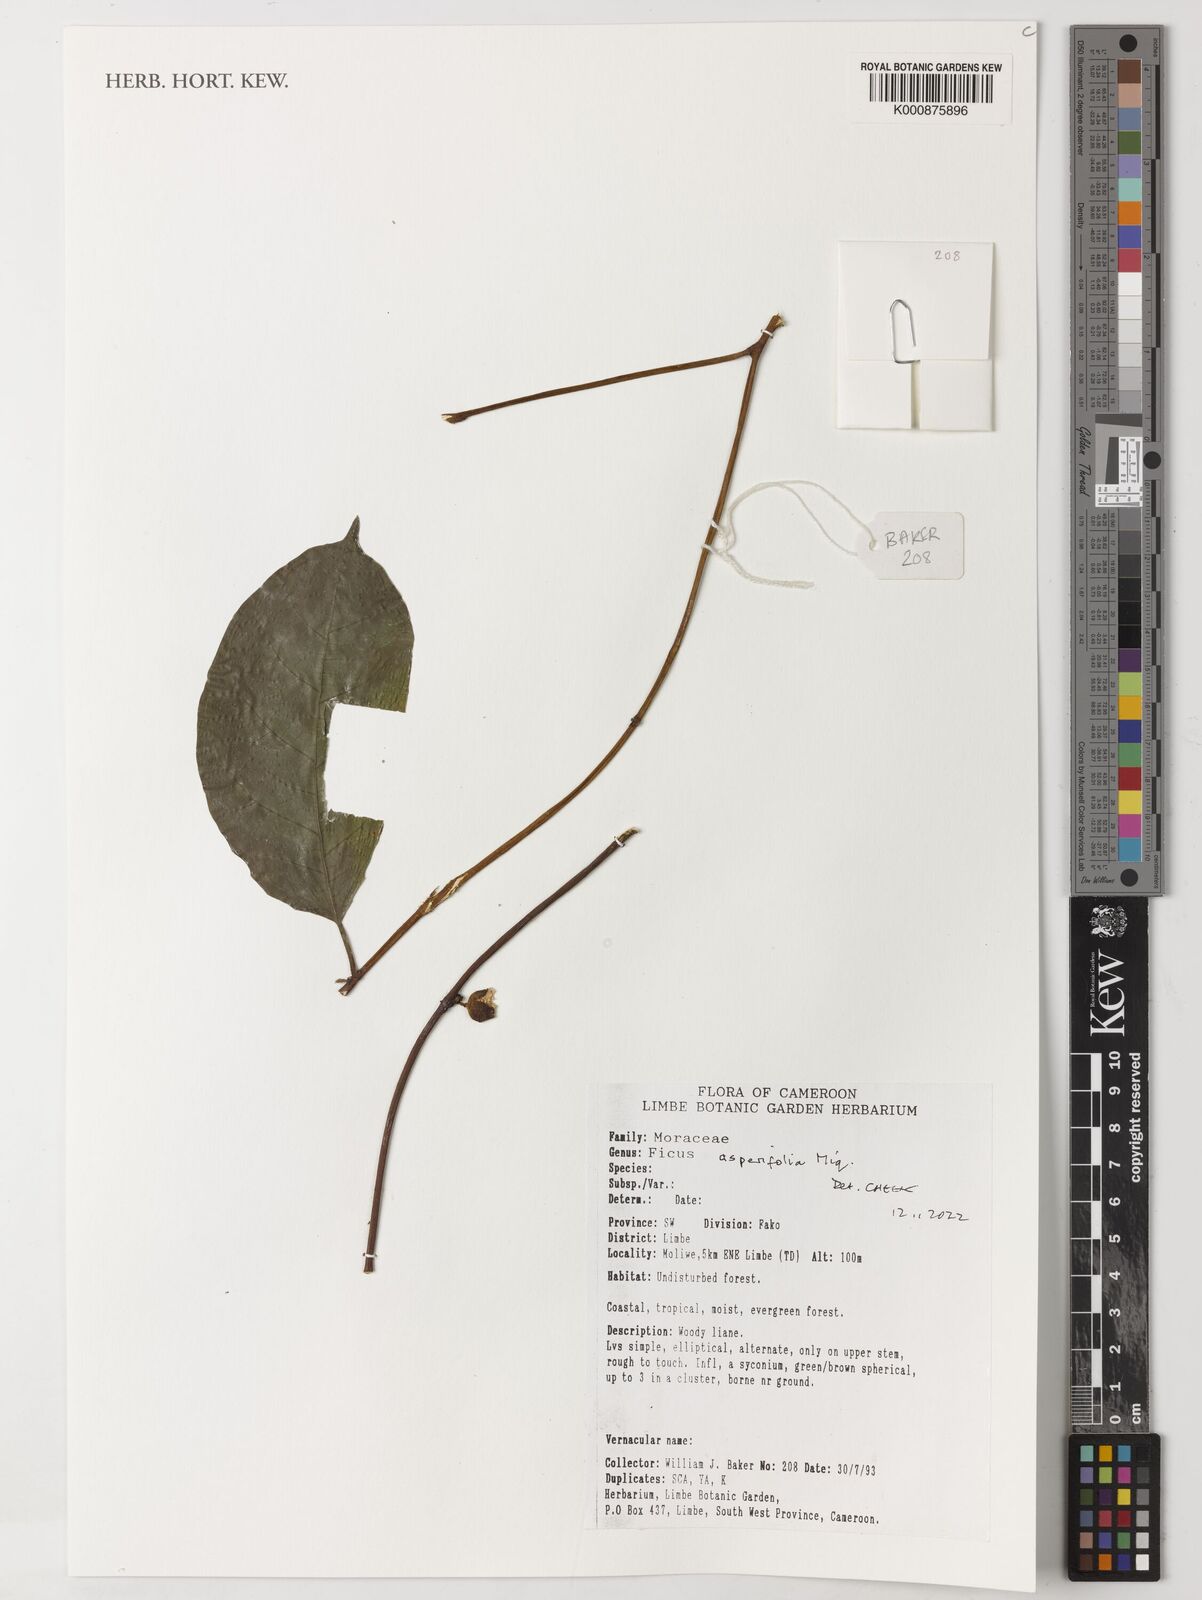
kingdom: Plantae
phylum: Tracheophyta
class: Magnoliopsida
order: Rosales
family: Moraceae
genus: Ficus
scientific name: Ficus asperifolia
